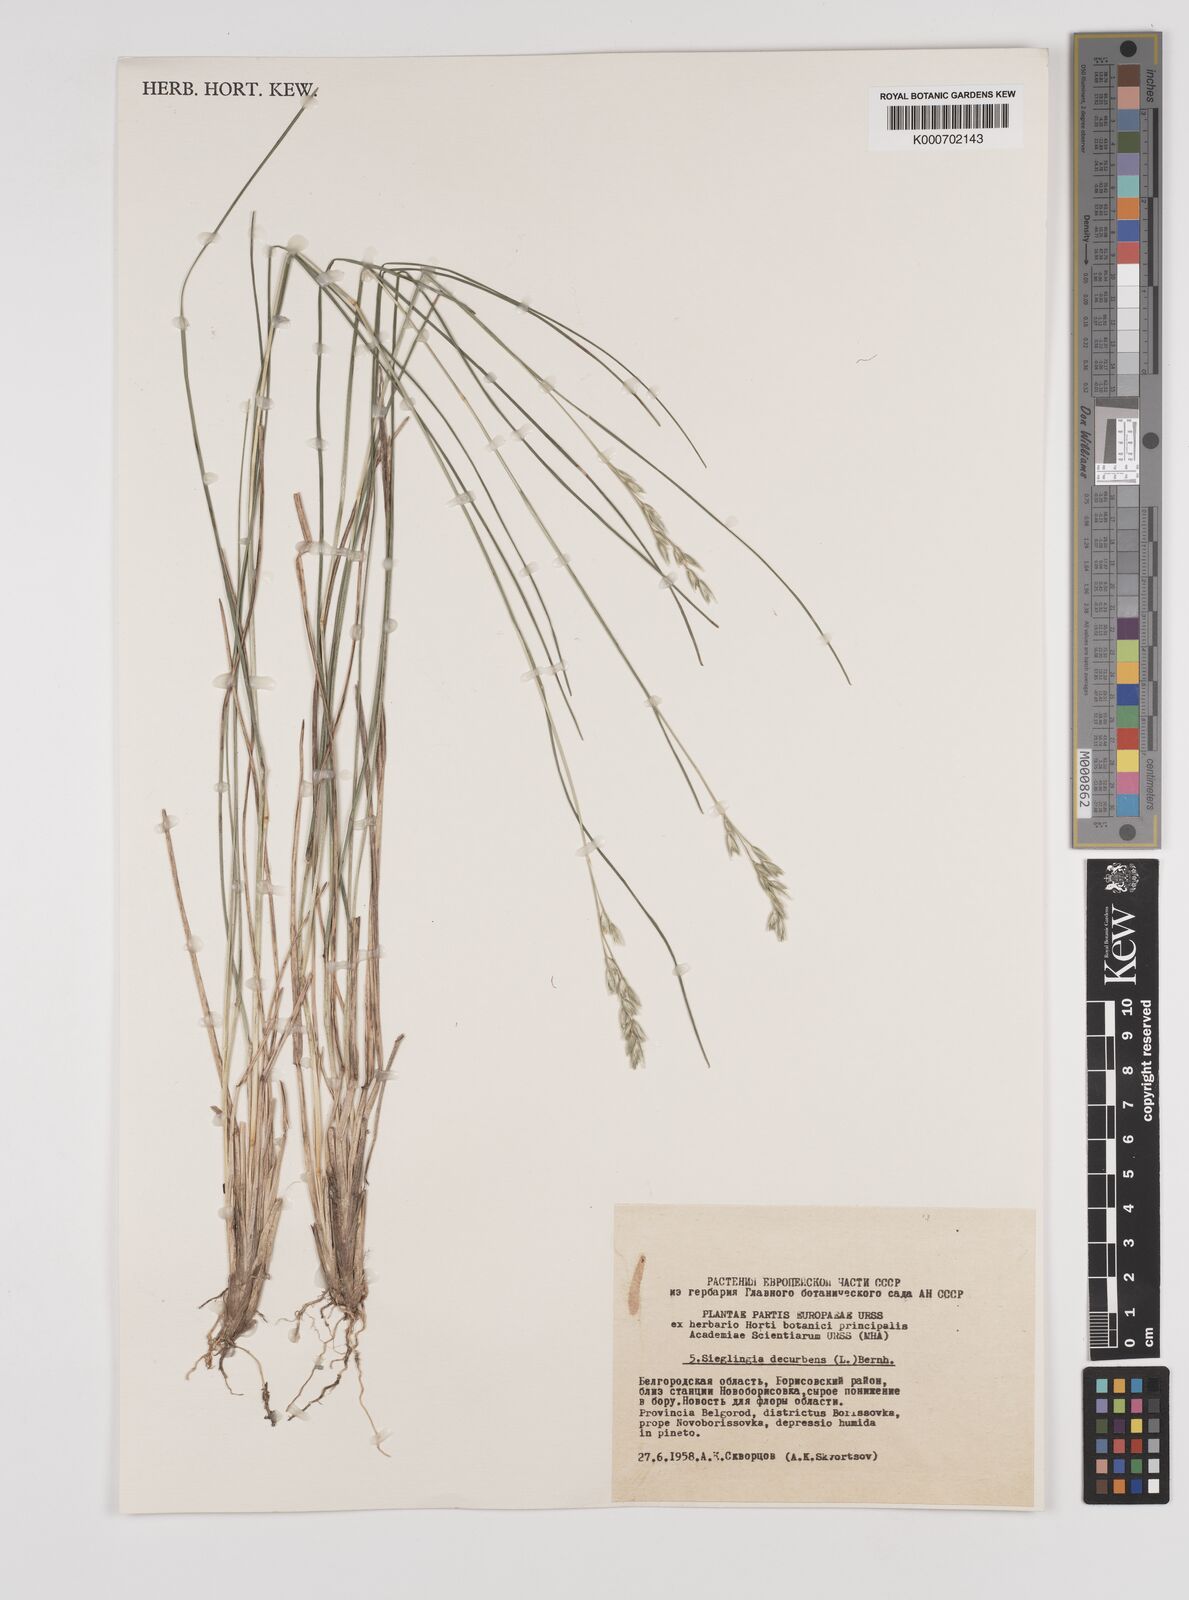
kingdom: Plantae
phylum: Tracheophyta
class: Liliopsida
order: Poales
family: Poaceae
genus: Danthonia
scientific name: Danthonia decumbens
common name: Common heathgrass
